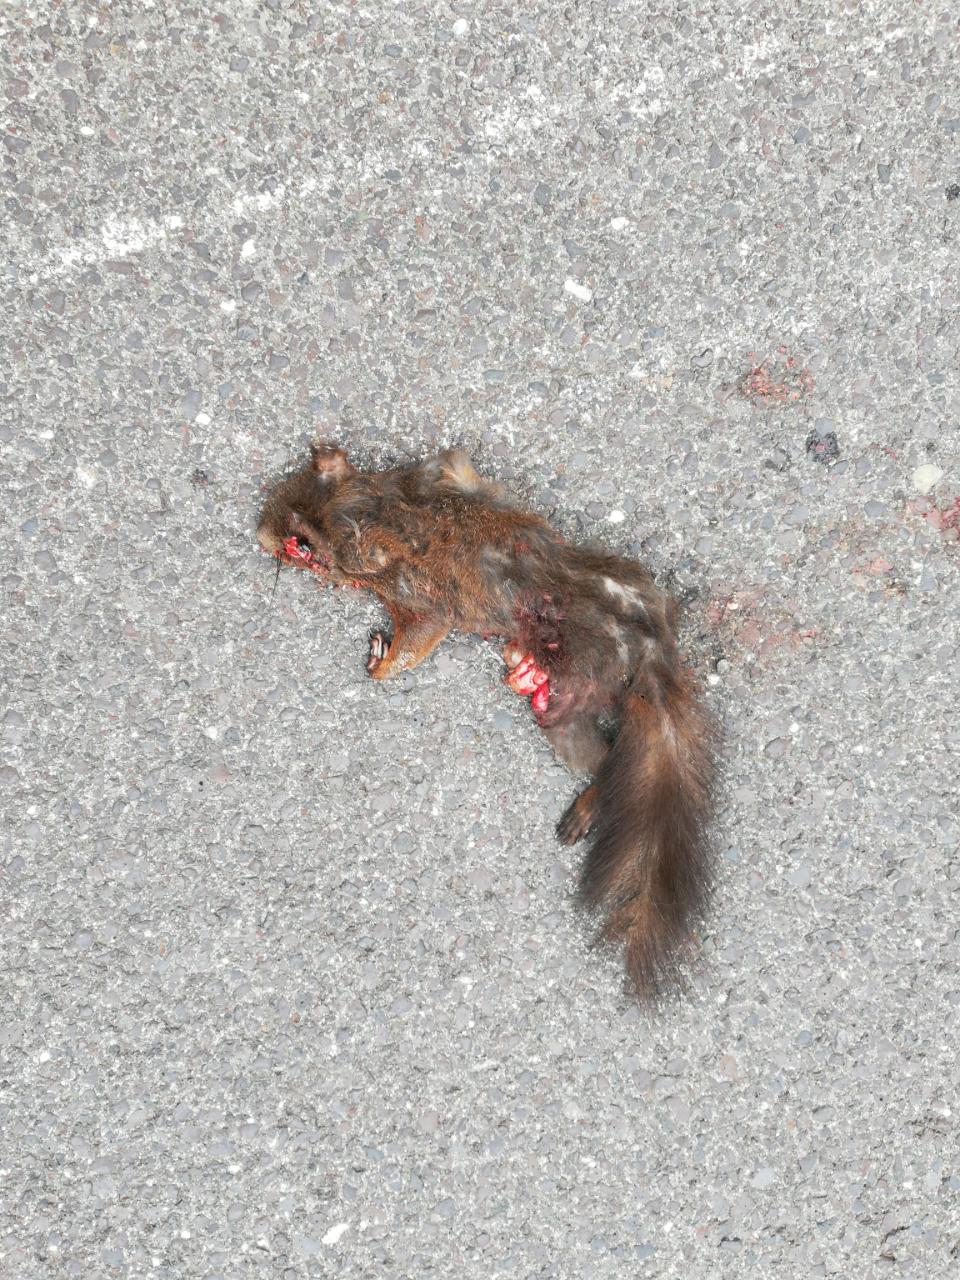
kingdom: Animalia
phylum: Chordata
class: Mammalia
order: Rodentia
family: Sciuridae
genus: Sciurus
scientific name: Sciurus vulgaris
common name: Eurasian red squirrel
